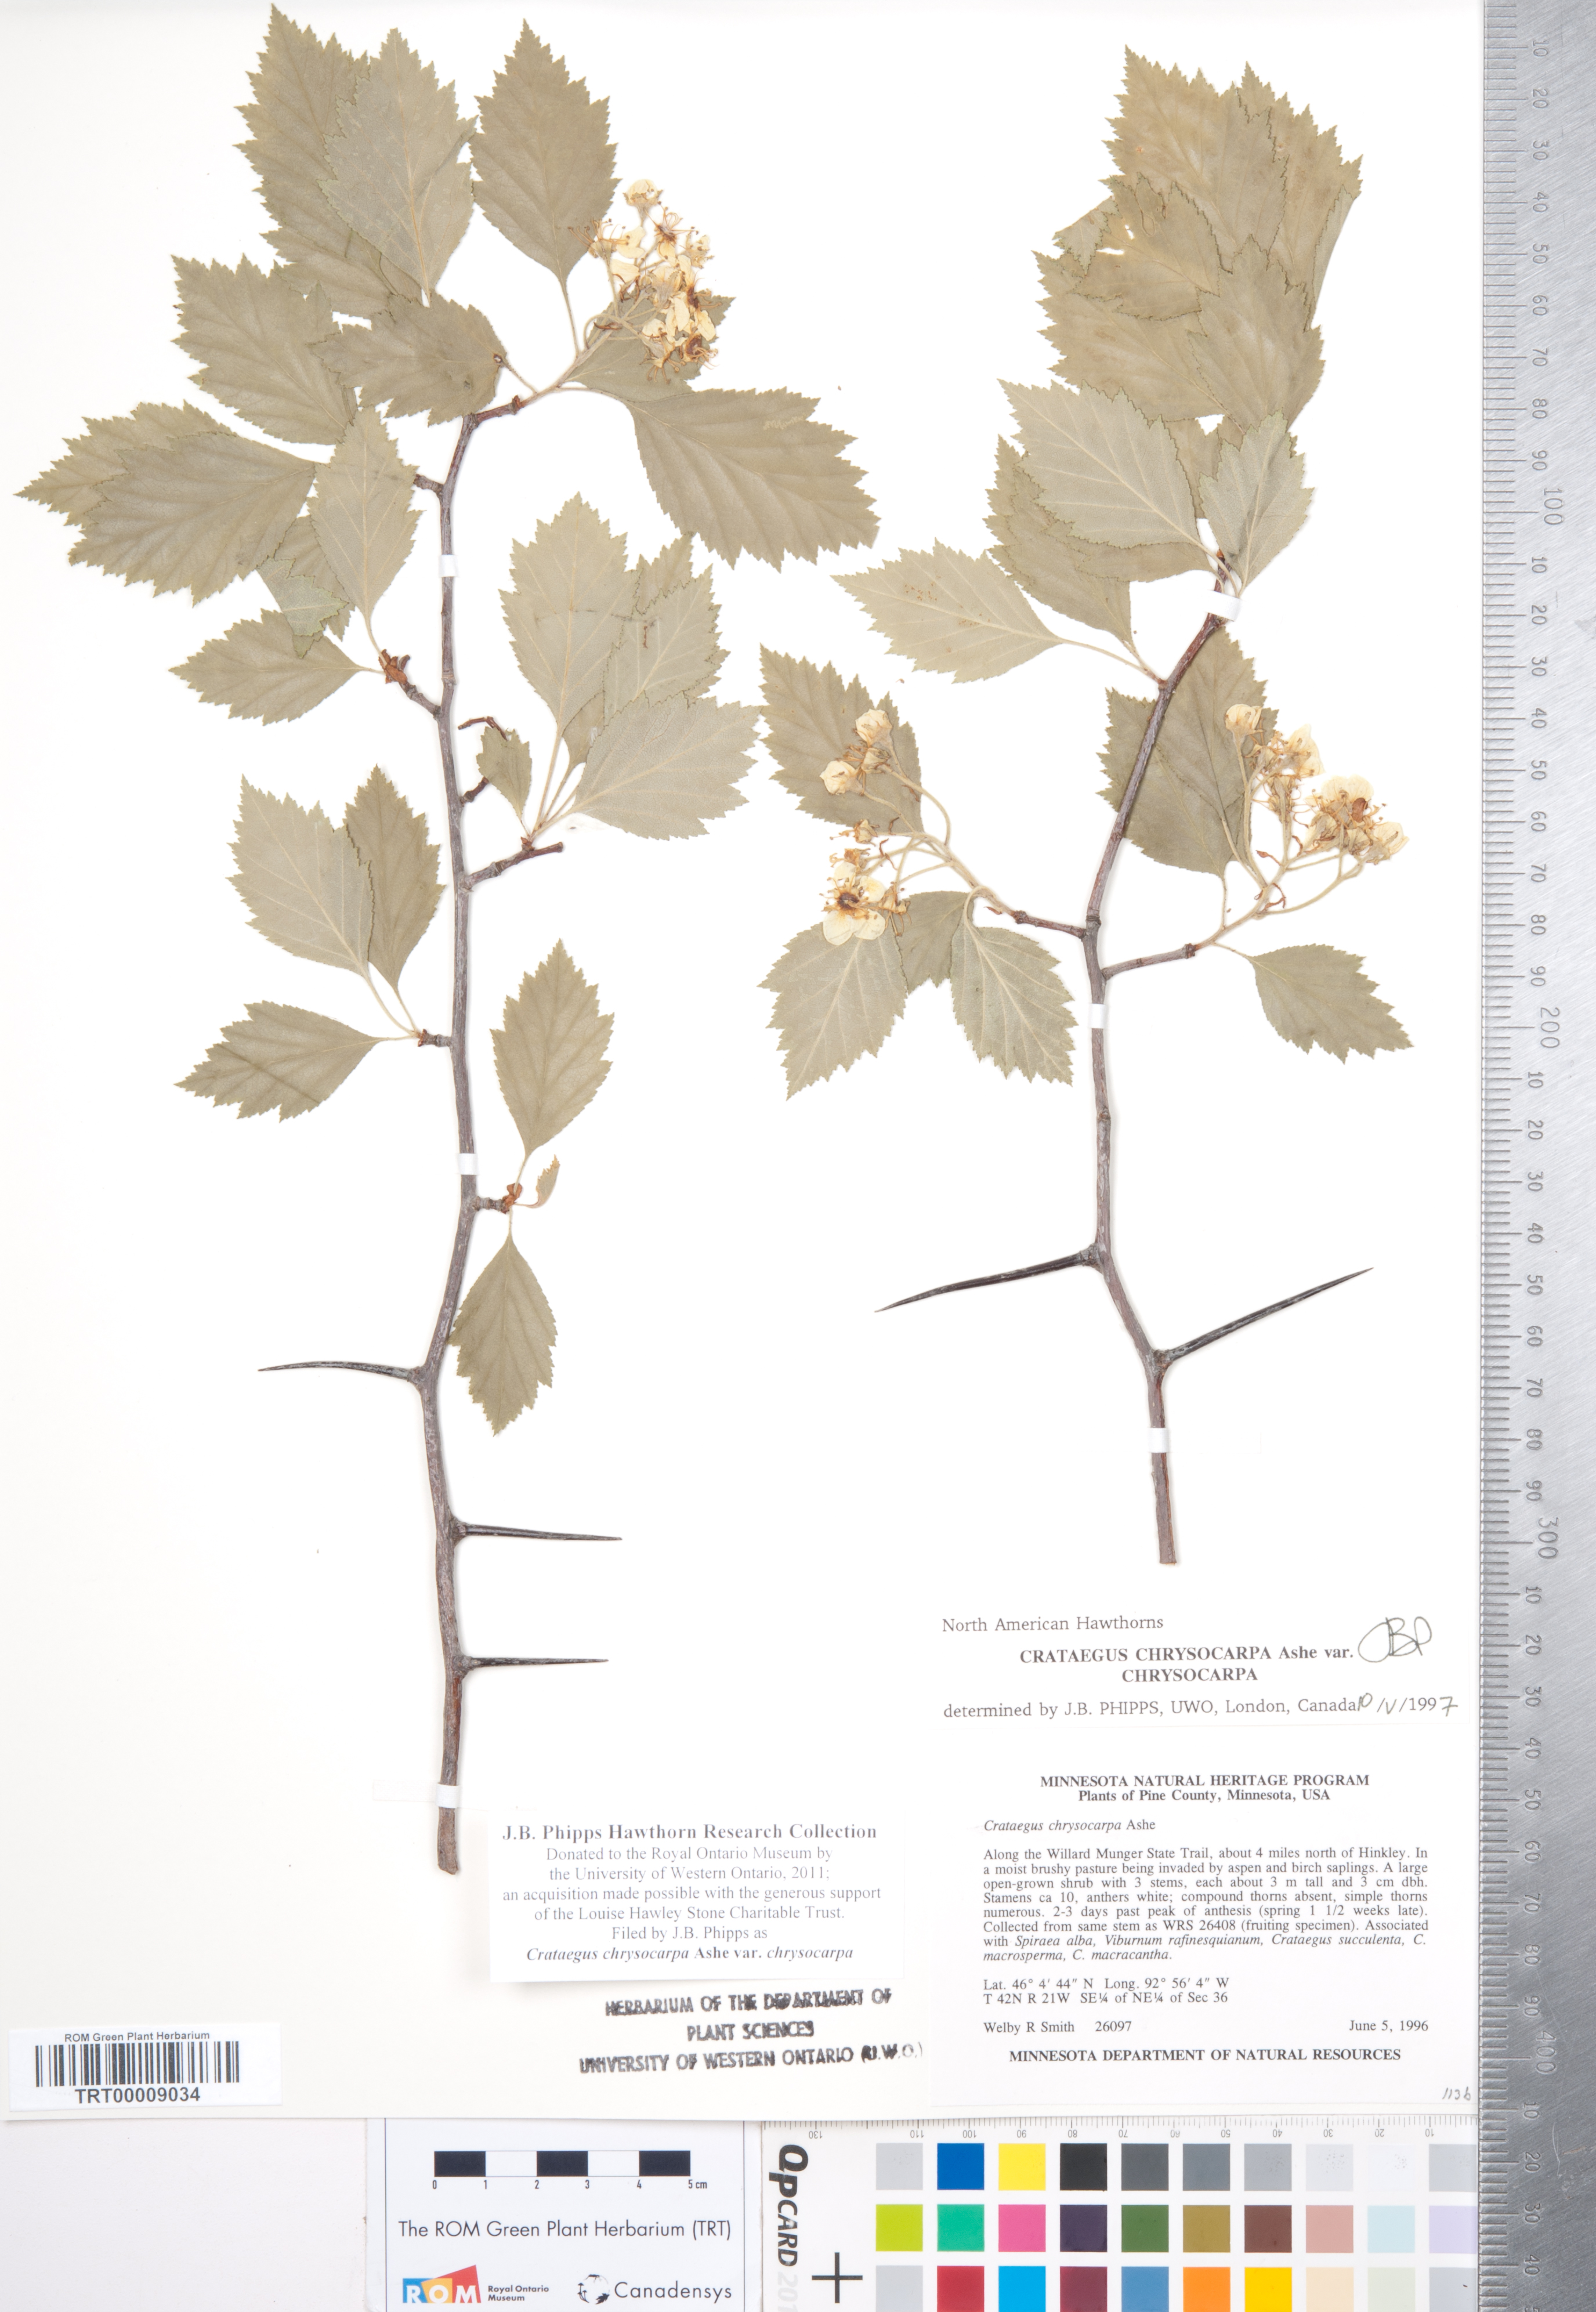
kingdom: Plantae
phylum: Tracheophyta
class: Magnoliopsida
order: Rosales
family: Rosaceae
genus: Crataegus
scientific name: Crataegus chrysocarpa
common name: Fire-berry hawthorn
